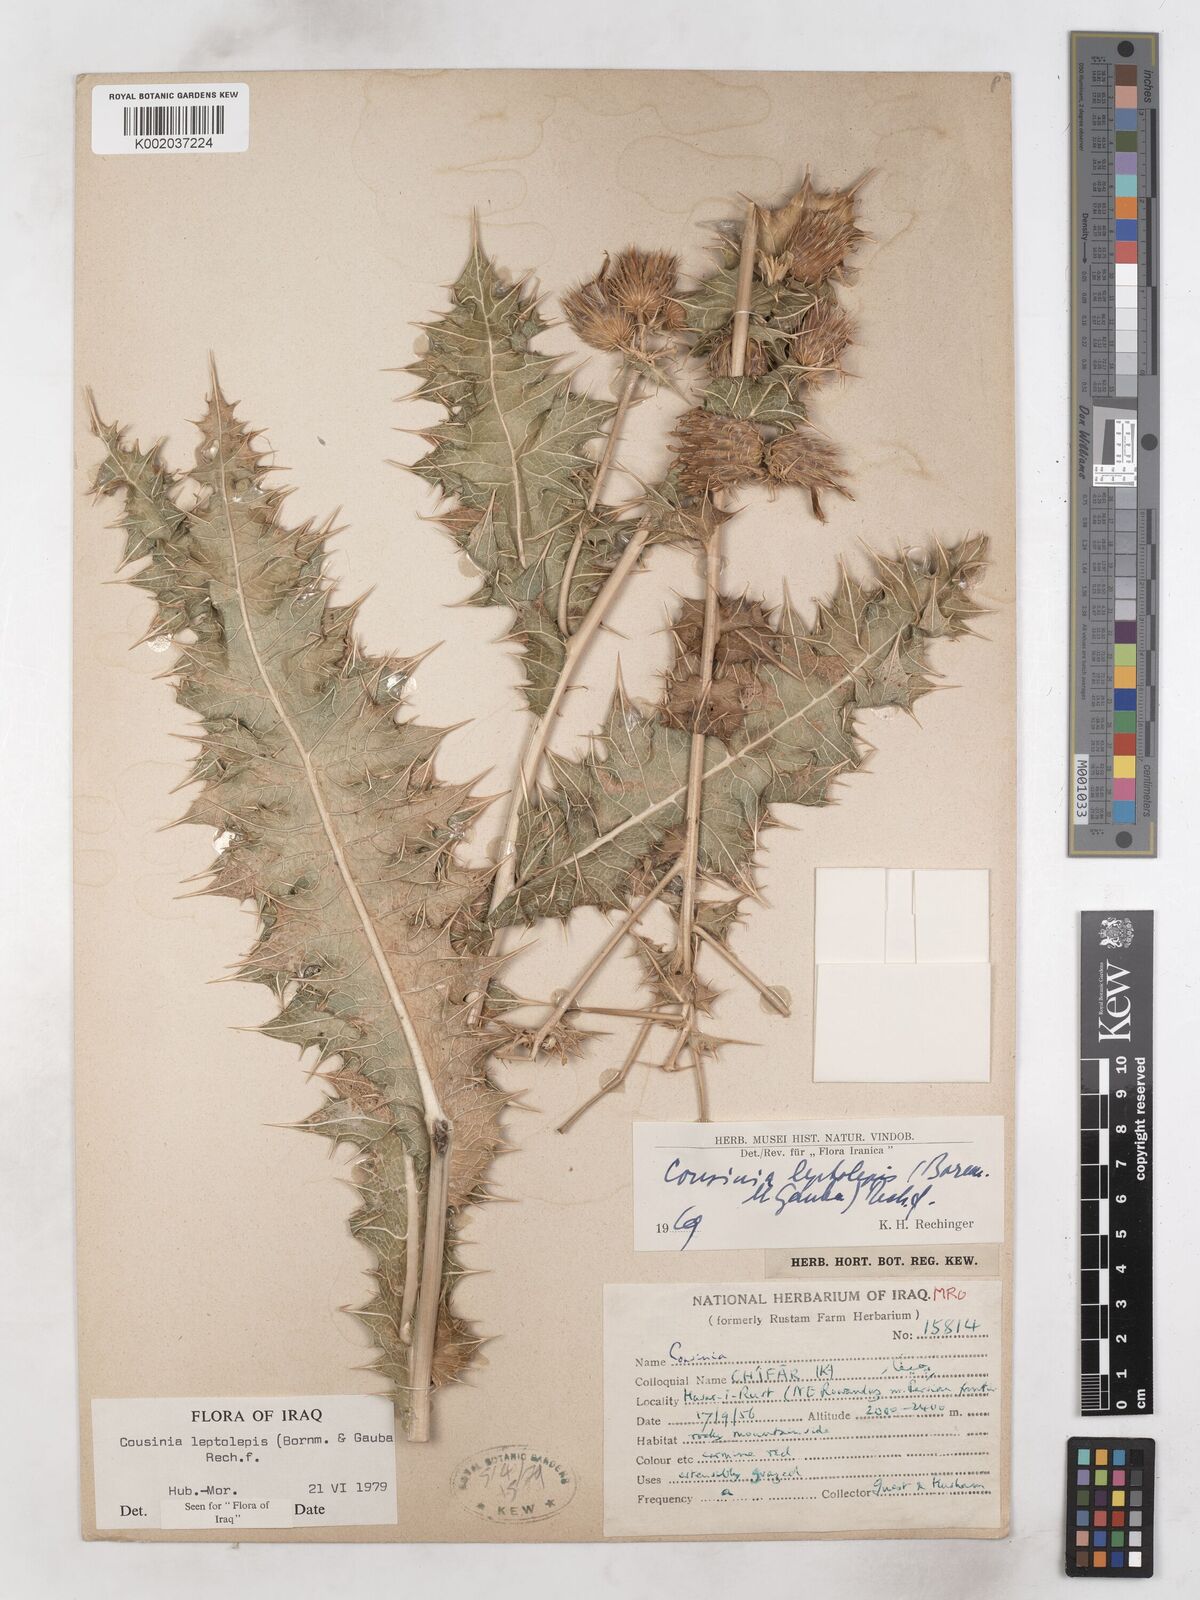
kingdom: Plantae
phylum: Tracheophyta
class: Magnoliopsida
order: Asterales
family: Asteraceae
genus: Cousinia
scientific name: Cousinia leptolepis
